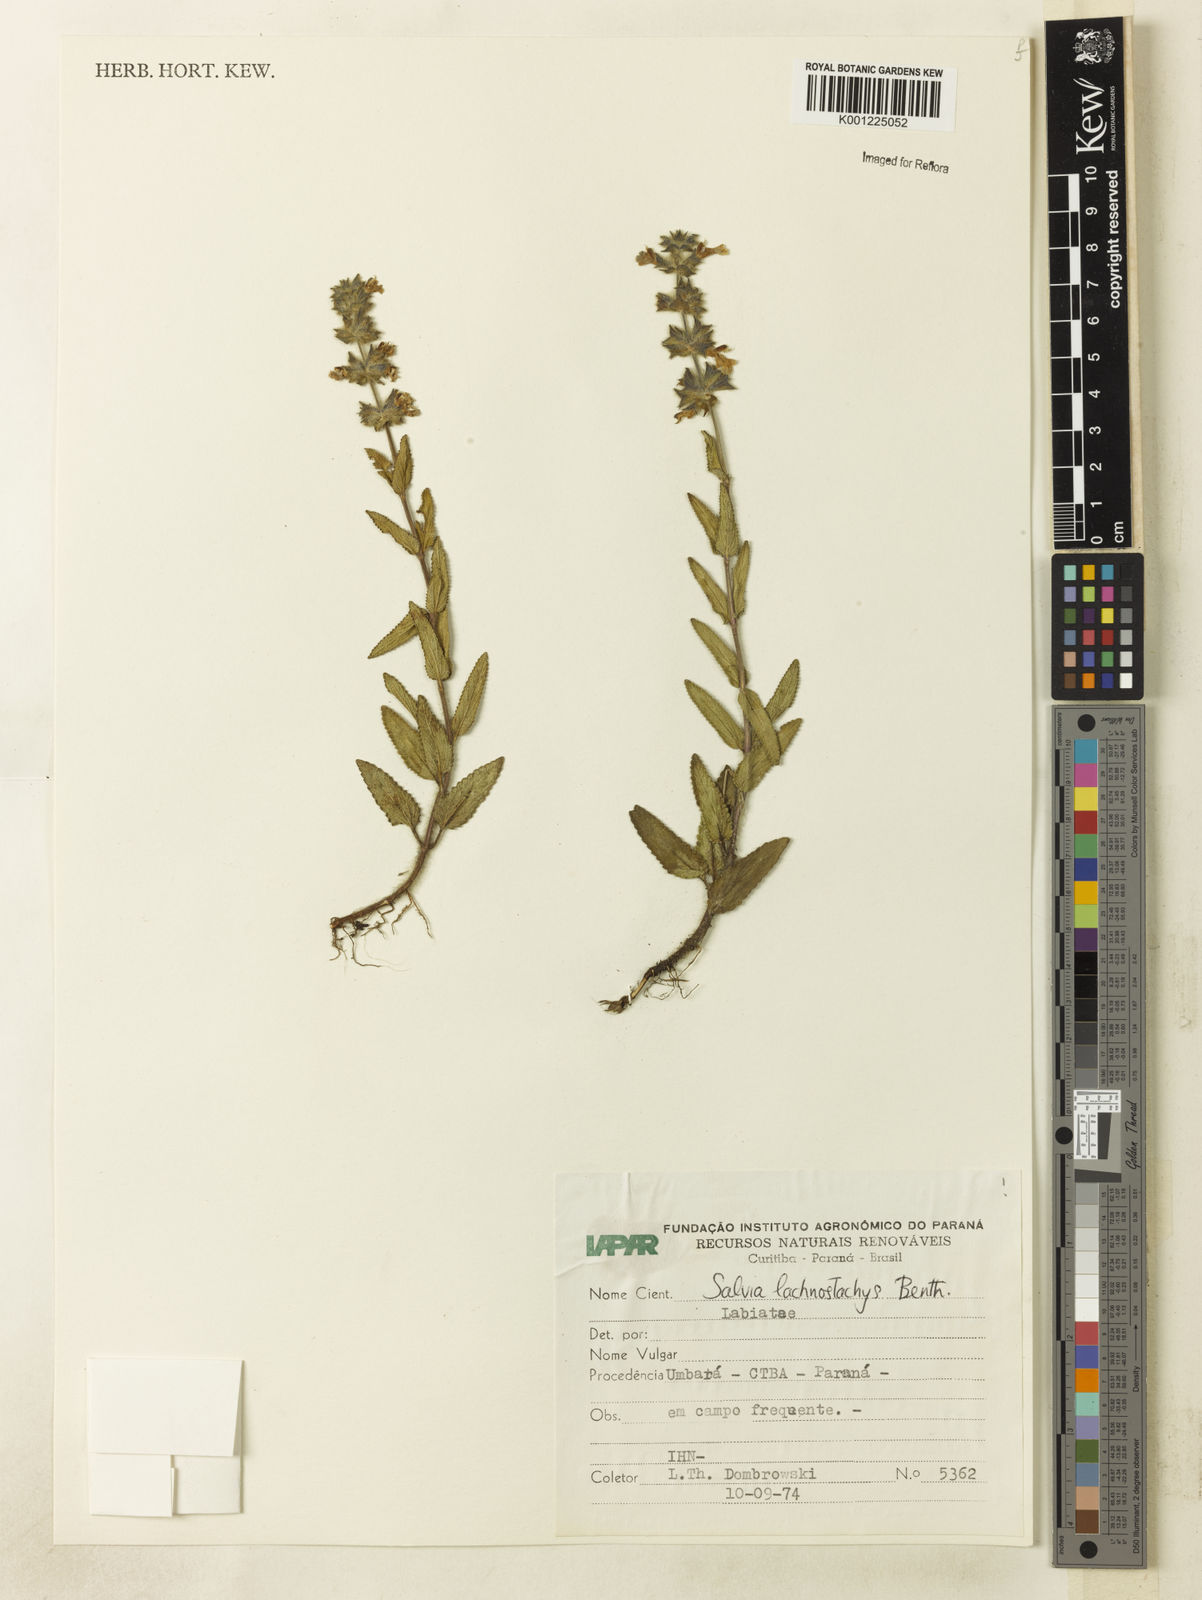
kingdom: Plantae
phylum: Tracheophyta
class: Magnoliopsida
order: Lamiales
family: Lamiaceae
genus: Salvia
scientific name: Salvia lachnostachys
